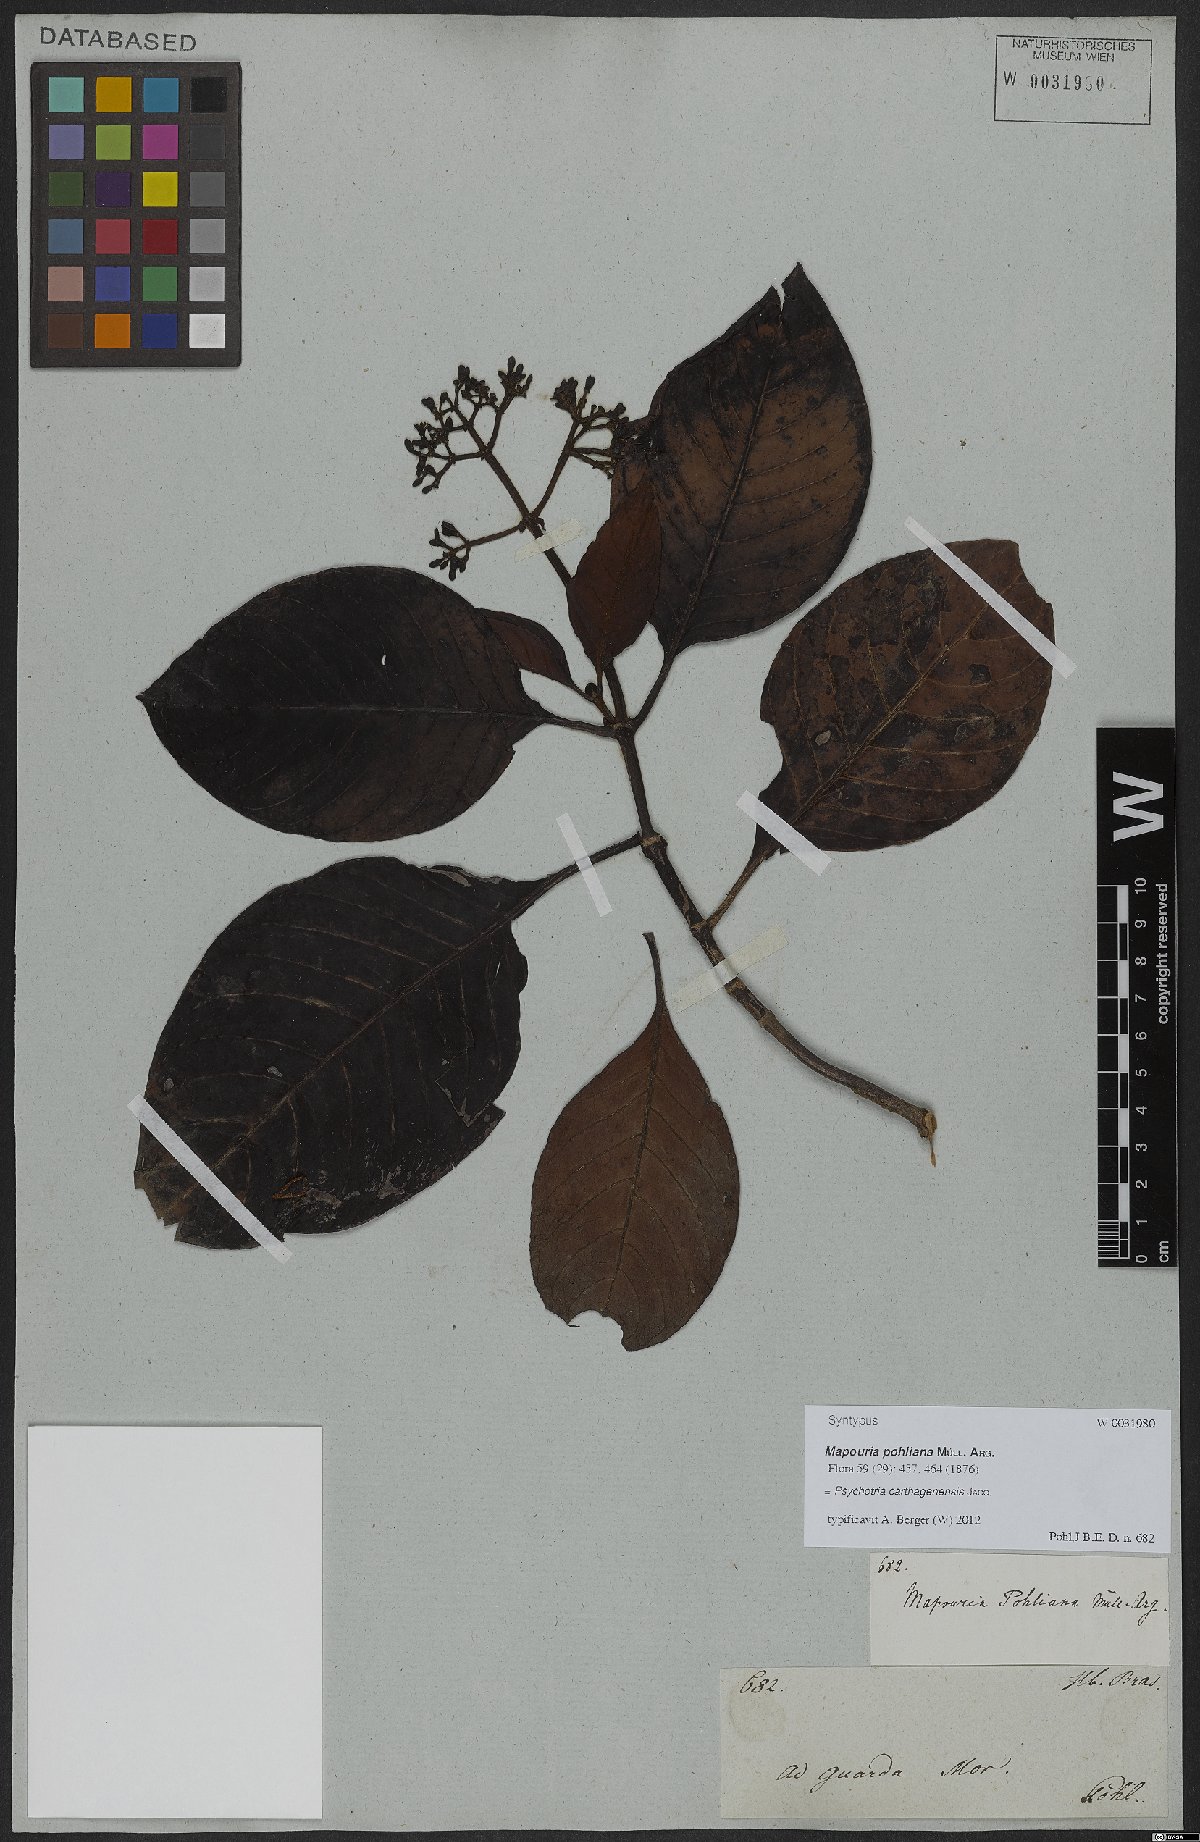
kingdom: Plantae
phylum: Tracheophyta
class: Magnoliopsida
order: Gentianales
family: Rubiaceae
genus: Psychotria
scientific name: Psychotria carthagenensis
